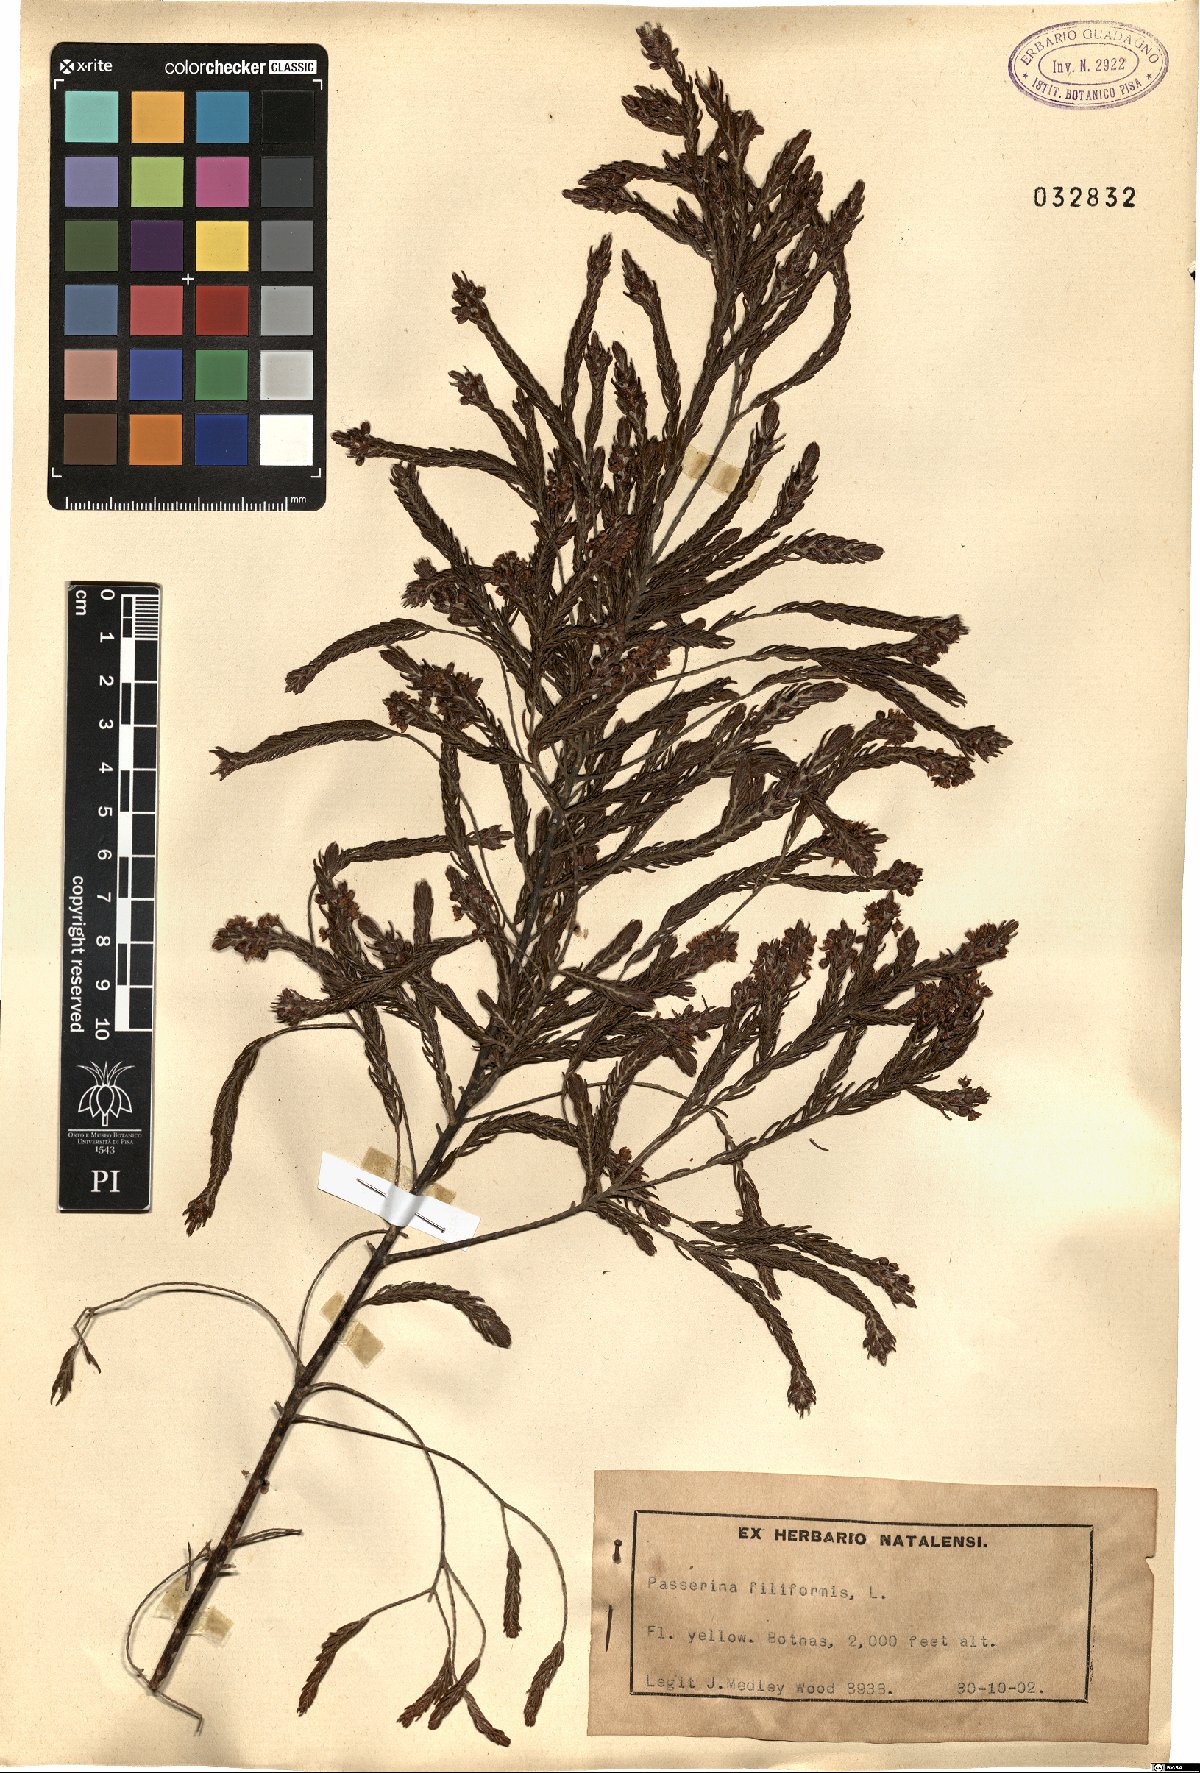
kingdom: Plantae
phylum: Tracheophyta
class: Magnoliopsida
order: Malvales
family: Thymelaeaceae
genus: Passerina
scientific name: Passerina filiformis
